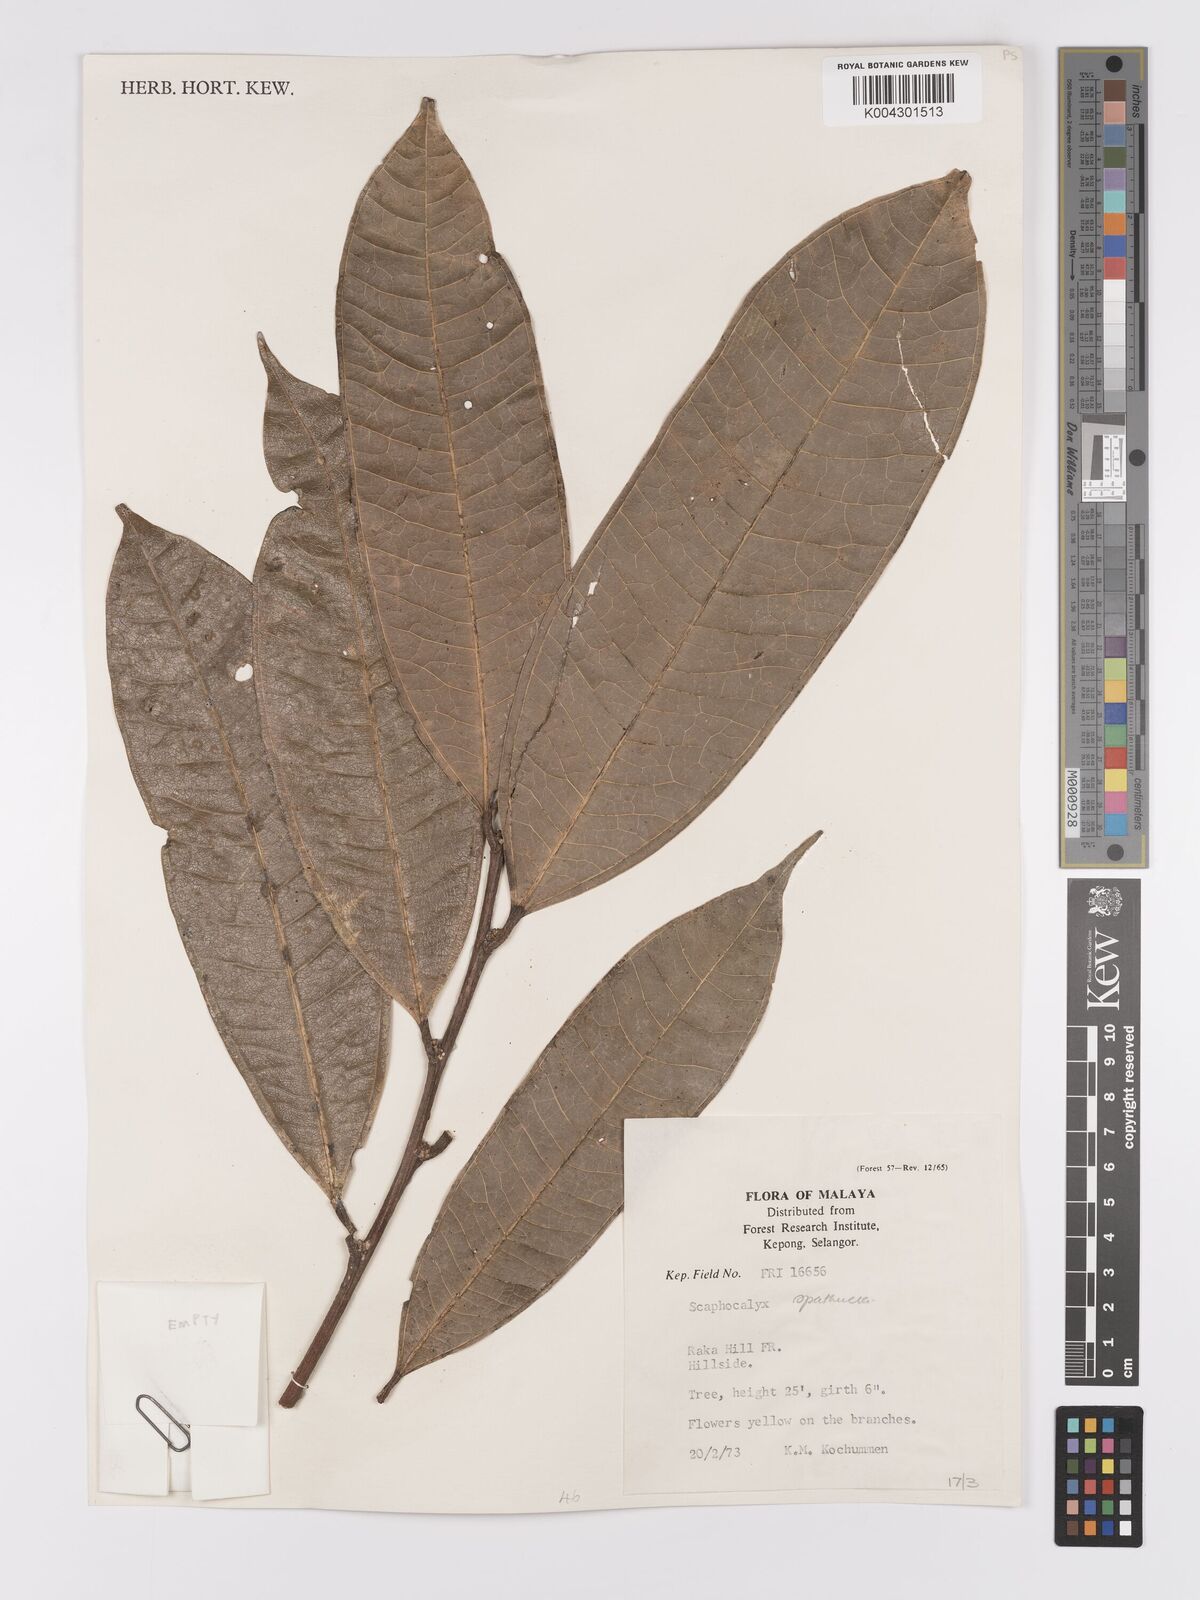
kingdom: Plantae
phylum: Tracheophyta
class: Magnoliopsida
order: Malpighiales
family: Achariaceae
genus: Scaphocalyx
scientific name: Scaphocalyx spathacea
